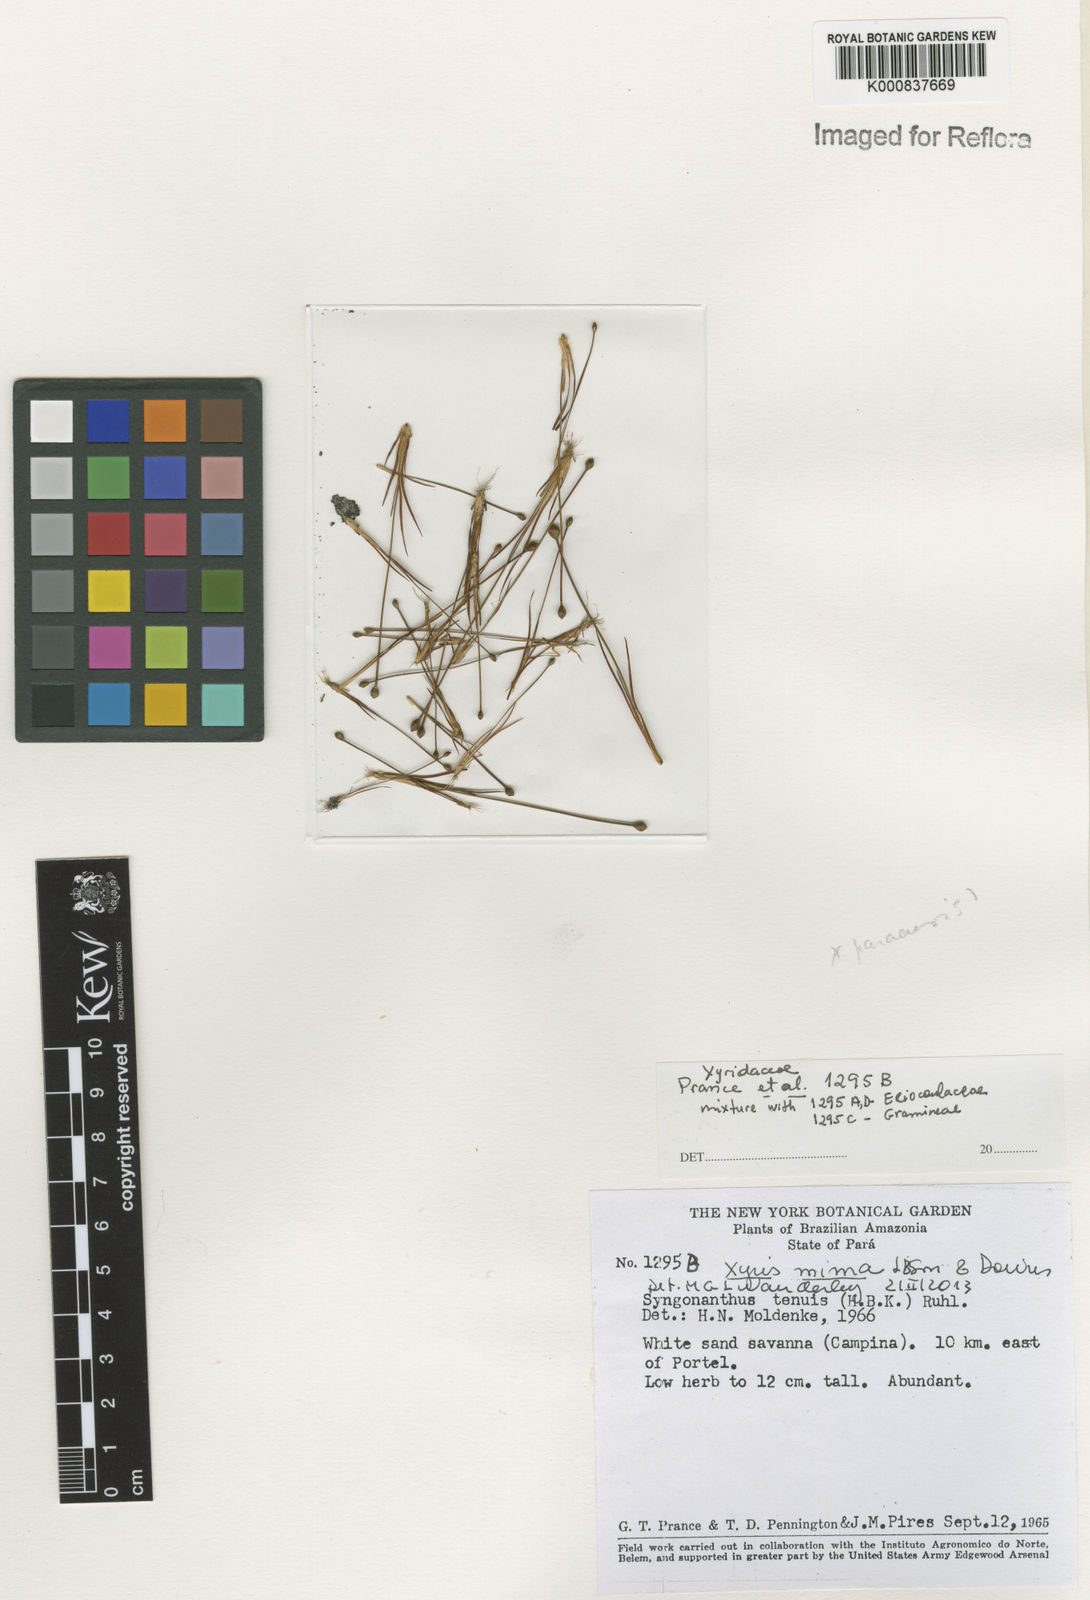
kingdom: Plantae
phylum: Tracheophyta
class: Liliopsida
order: Poales
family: Xyridaceae
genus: Xyris
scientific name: Xyris mima
